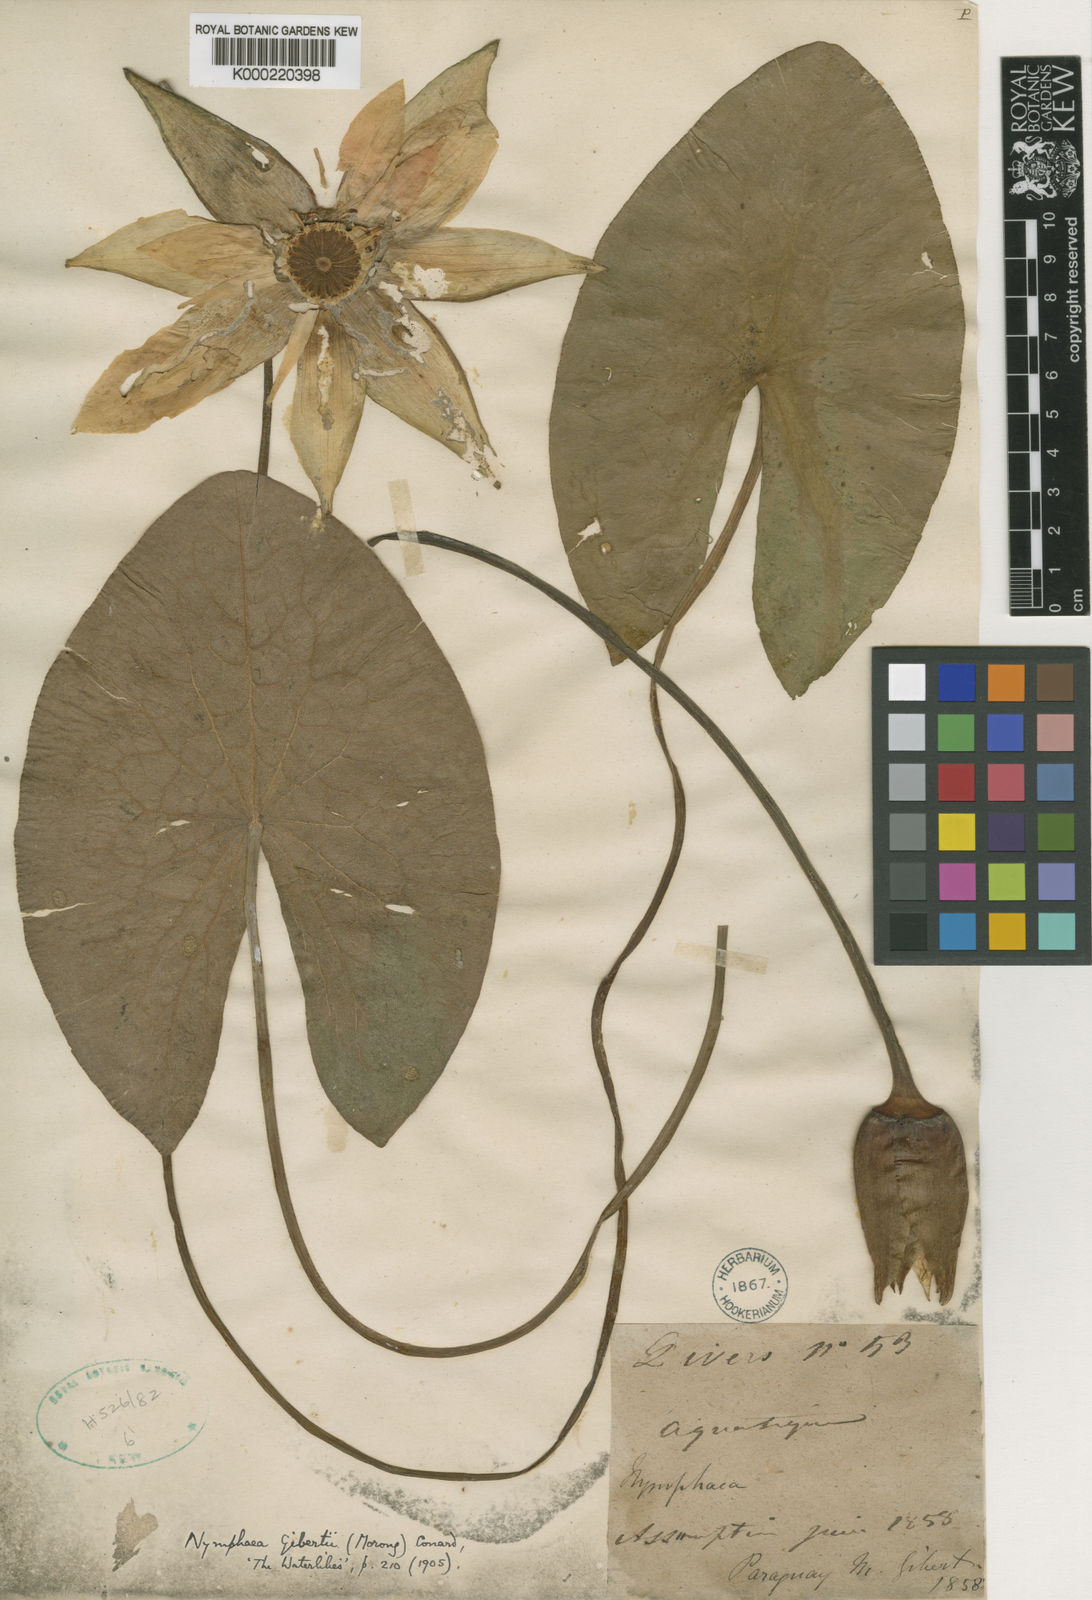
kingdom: Plantae
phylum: Tracheophyta
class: Magnoliopsida
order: Nymphaeales
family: Nymphaeaceae
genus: Nymphaea
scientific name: Nymphaea jamesoniana
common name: James' waterlily
